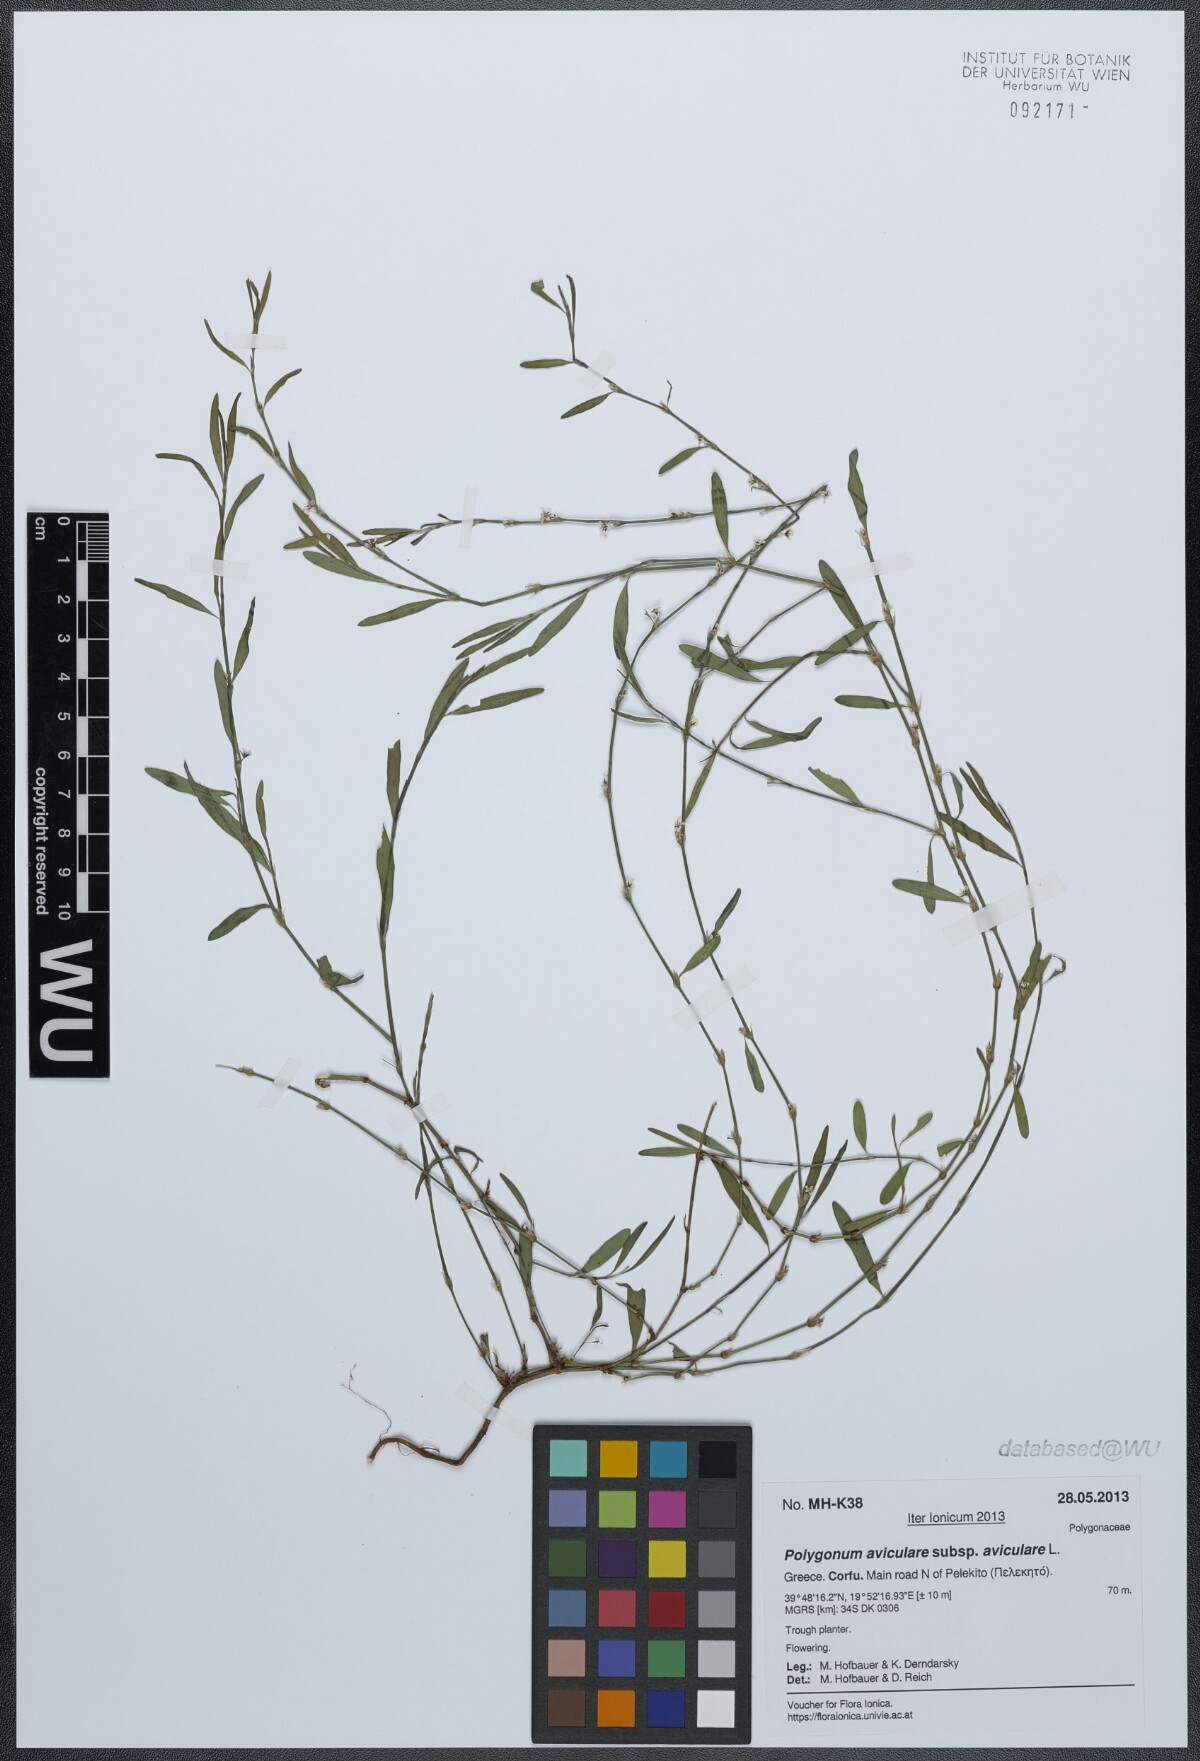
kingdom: Plantae
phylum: Tracheophyta
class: Magnoliopsida
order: Caryophyllales
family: Polygonaceae
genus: Polygonum
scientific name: Polygonum aviculare
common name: Prostrate knotweed
